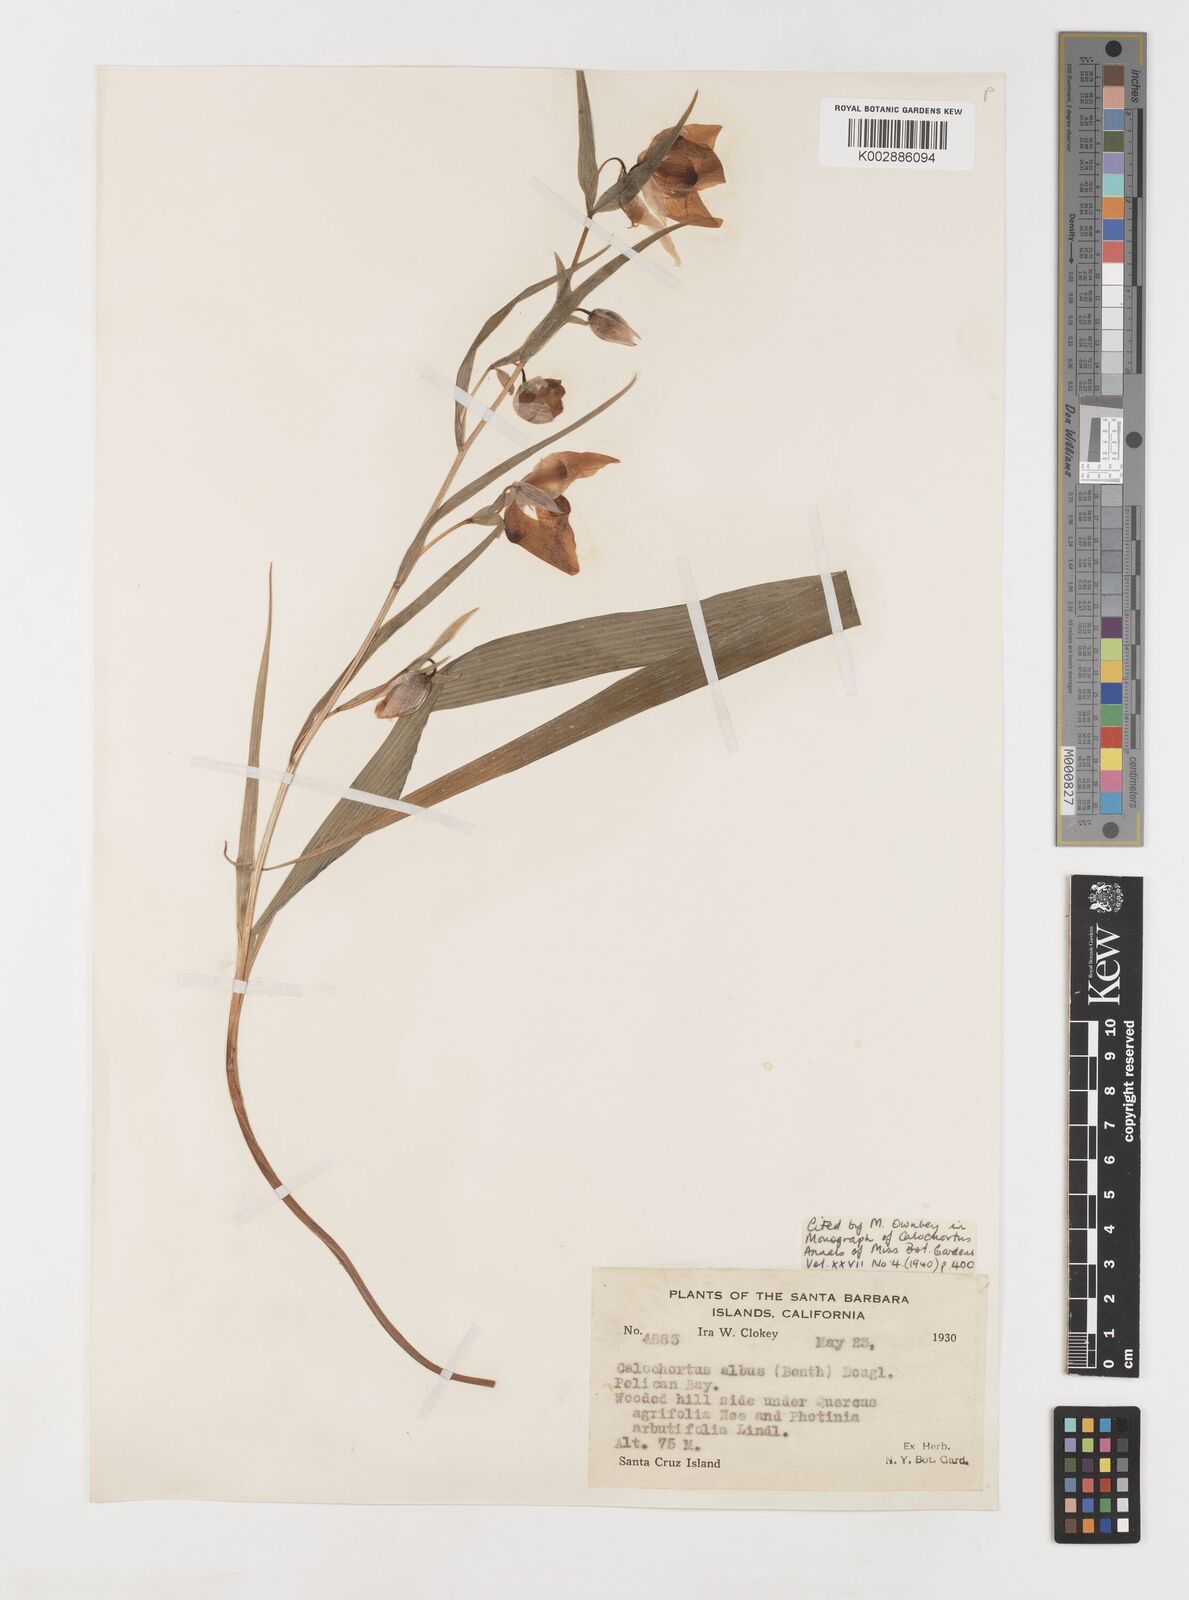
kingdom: Plantae
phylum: Tracheophyta
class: Liliopsida
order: Liliales
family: Liliaceae
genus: Calochortus
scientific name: Calochortus albus
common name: Fairy-lantern
